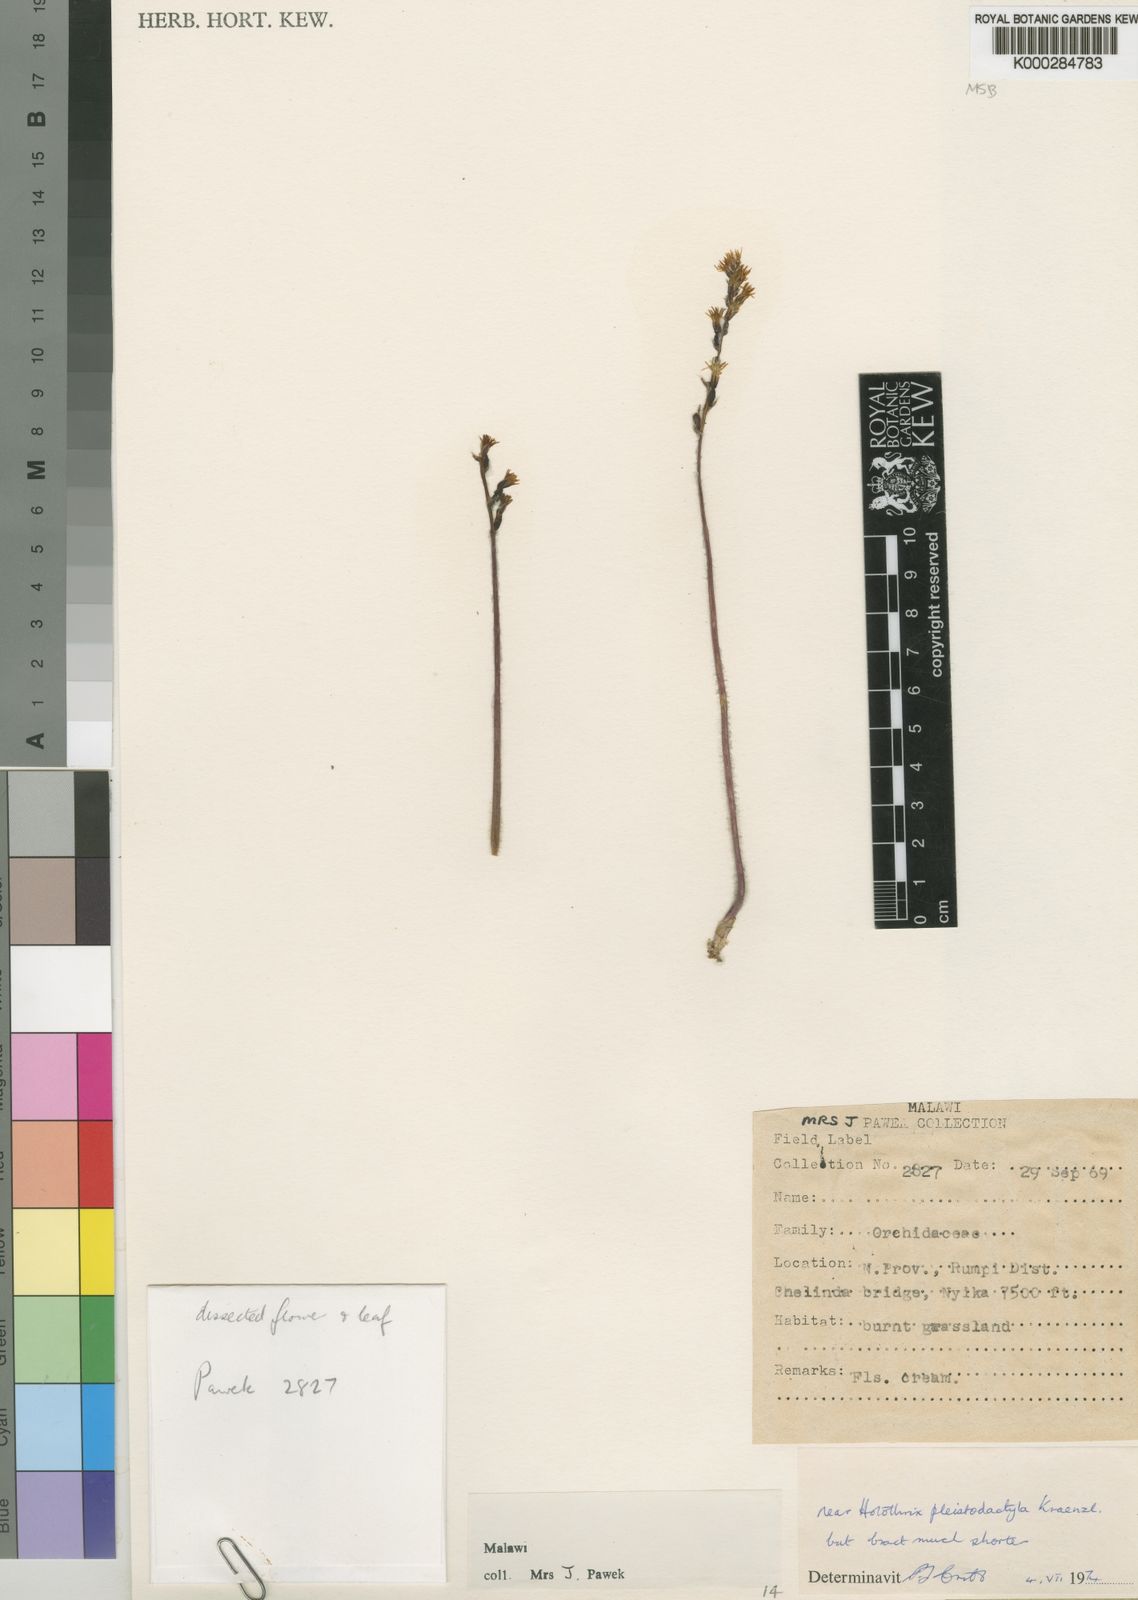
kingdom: Plantae
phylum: Tracheophyta
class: Liliopsida
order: Asparagales
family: Orchidaceae
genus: Holothrix
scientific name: Holothrix pleistodactyla
